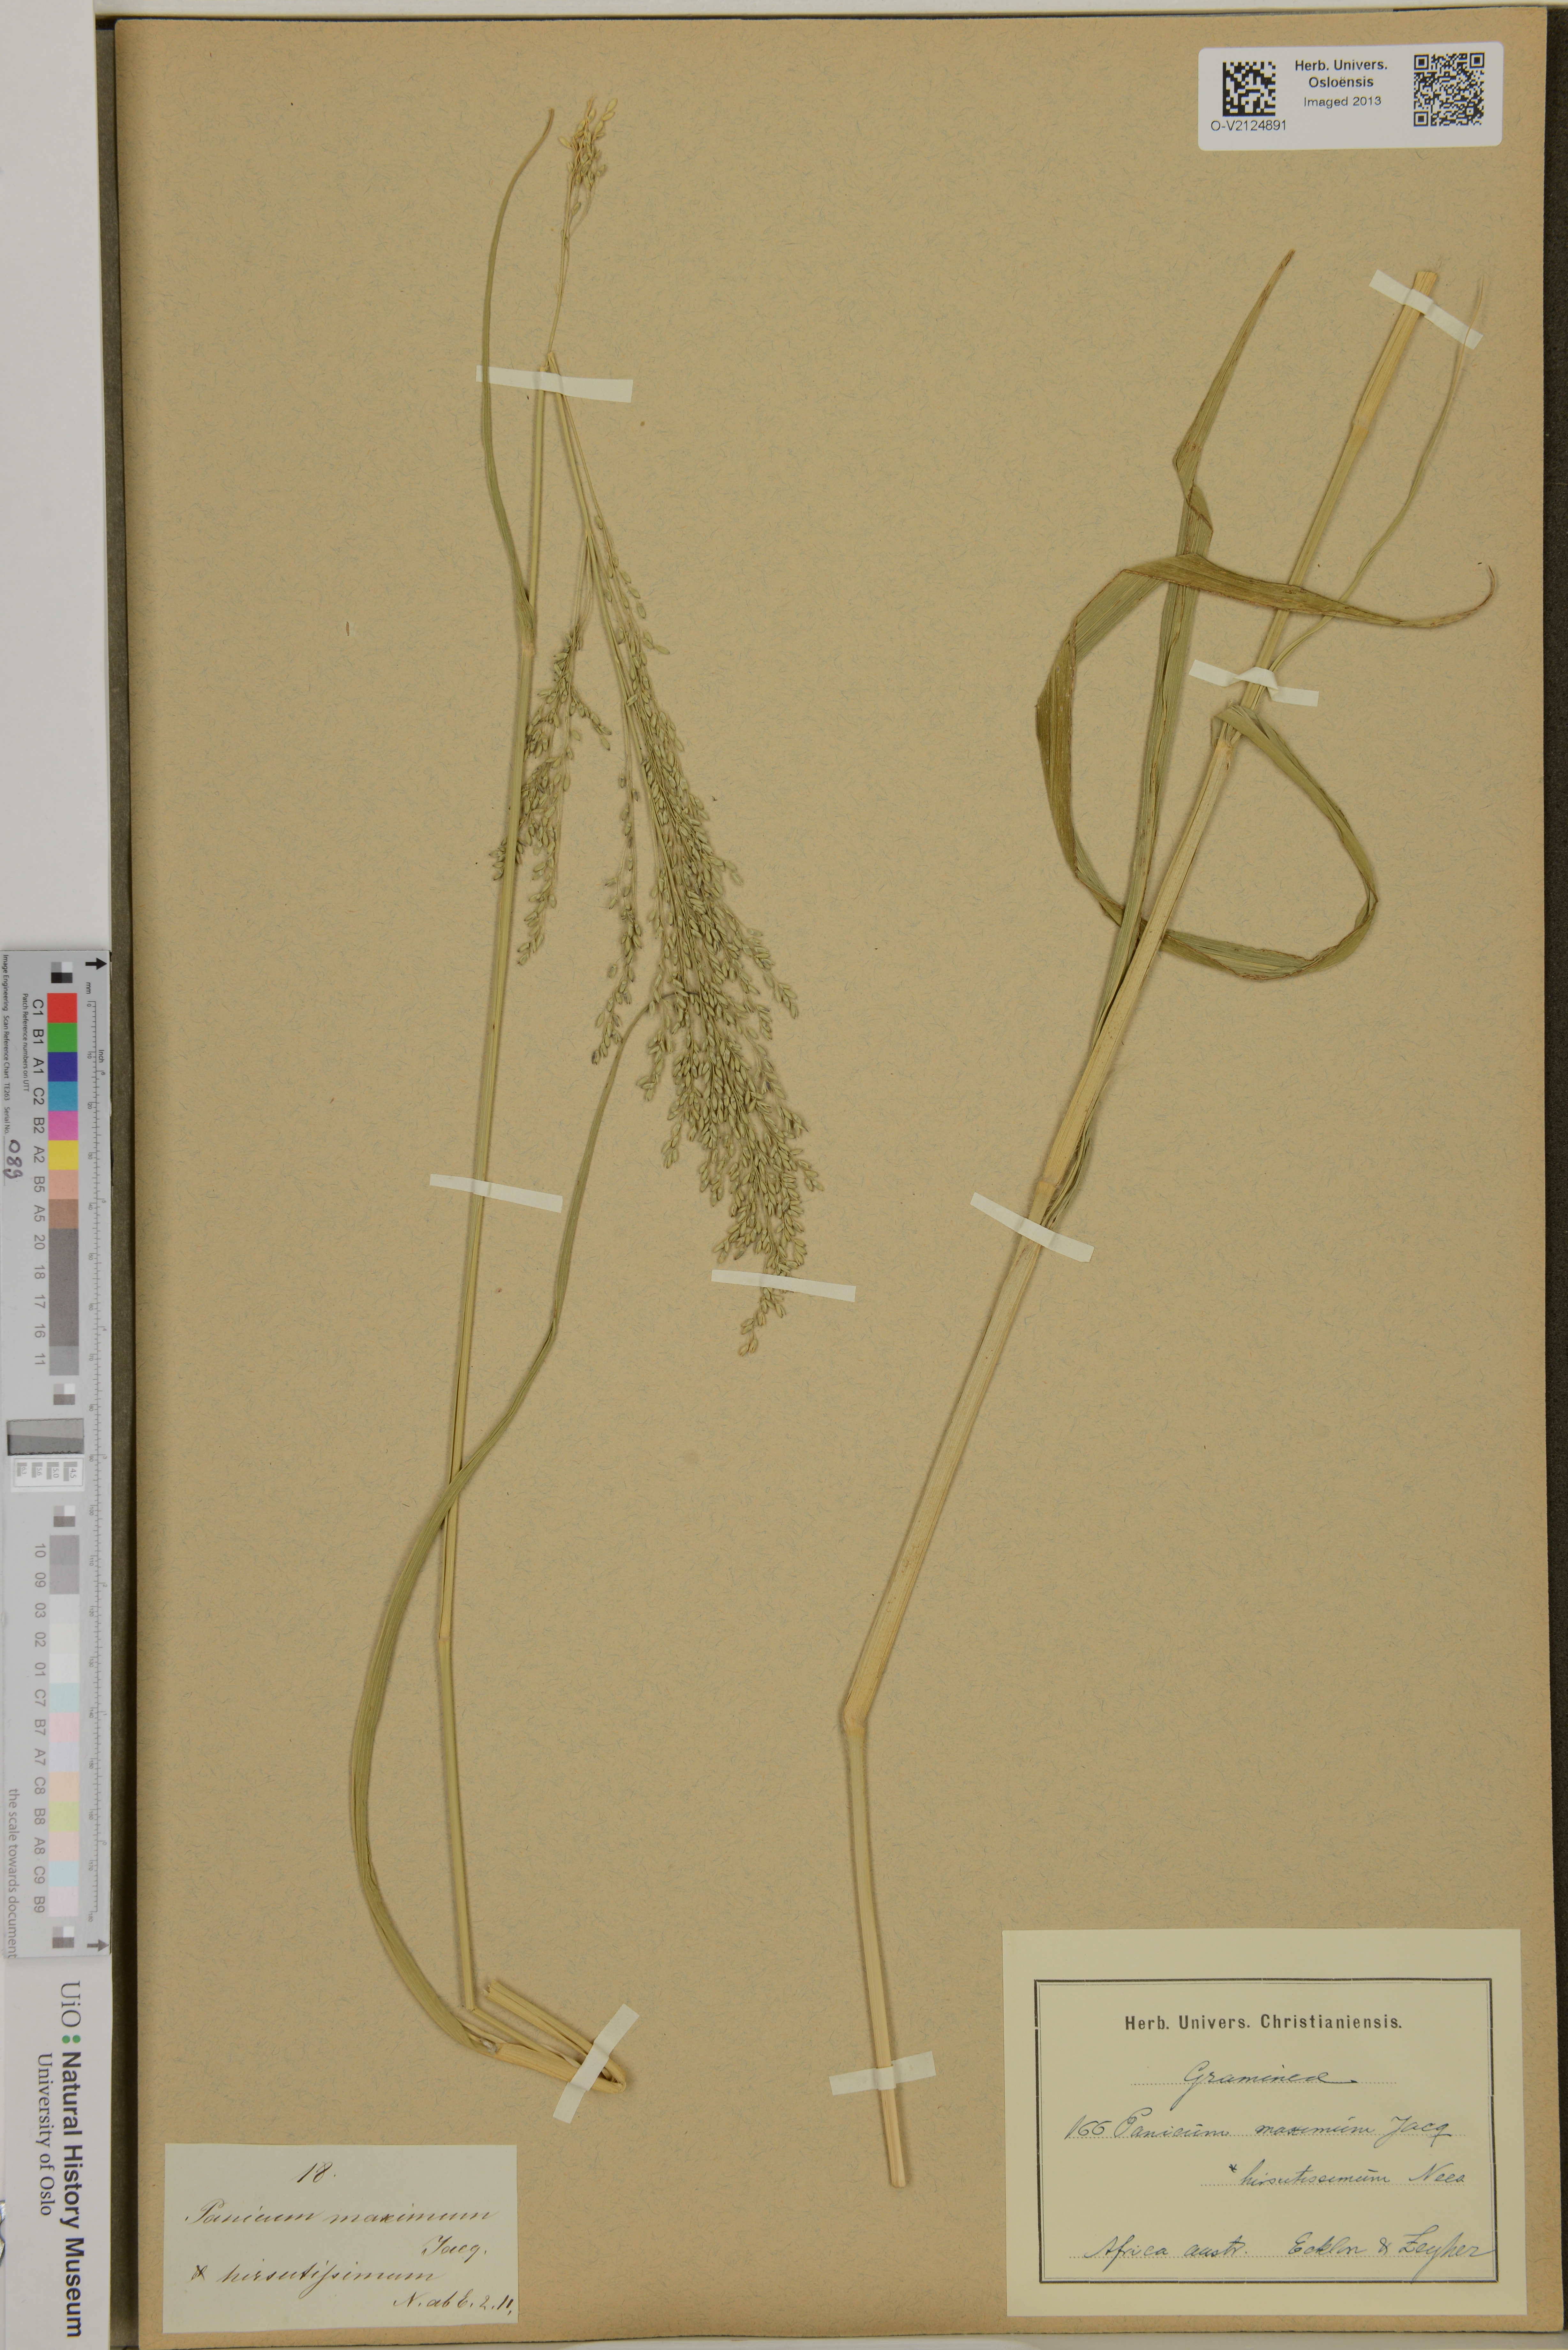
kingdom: Plantae
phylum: Tracheophyta
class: Liliopsida
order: Poales
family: Poaceae
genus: Panicum
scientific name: Panicum maximum
